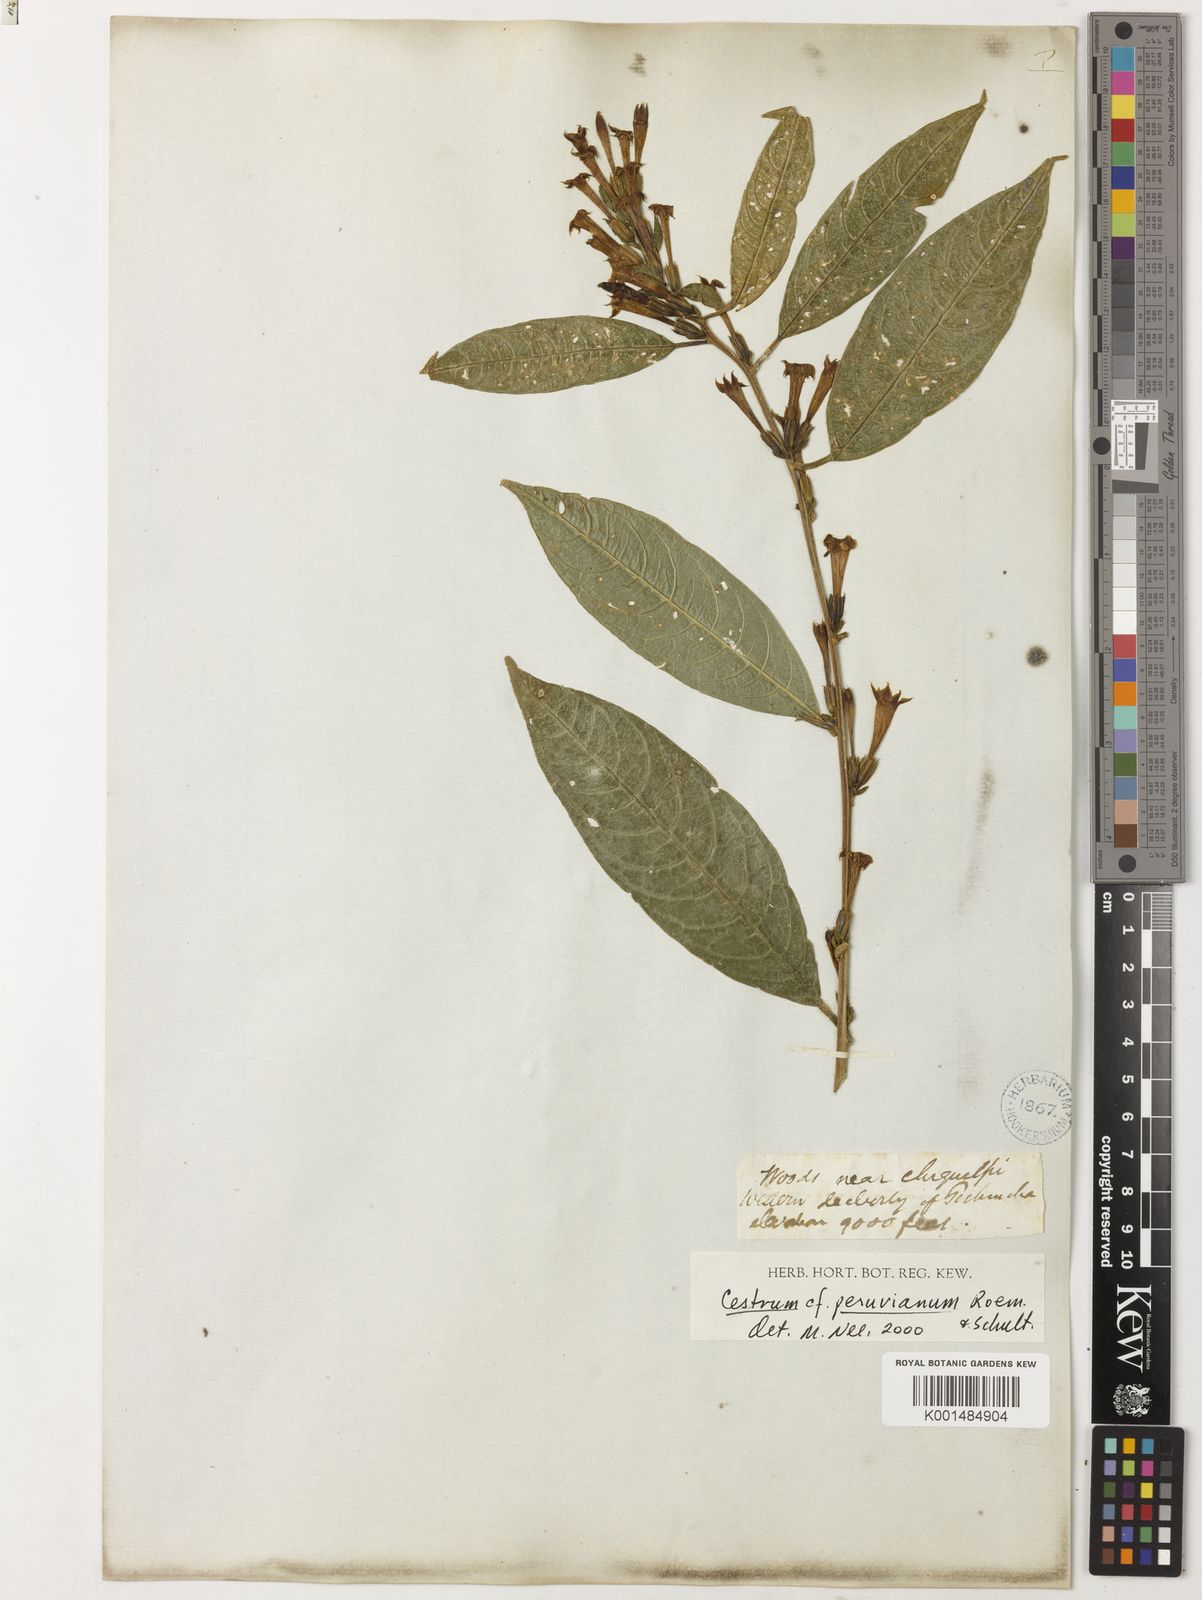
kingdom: Plantae
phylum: Tracheophyta
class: Magnoliopsida
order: Solanales
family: Solanaceae
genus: Cestrum
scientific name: Cestrum stuebelii
